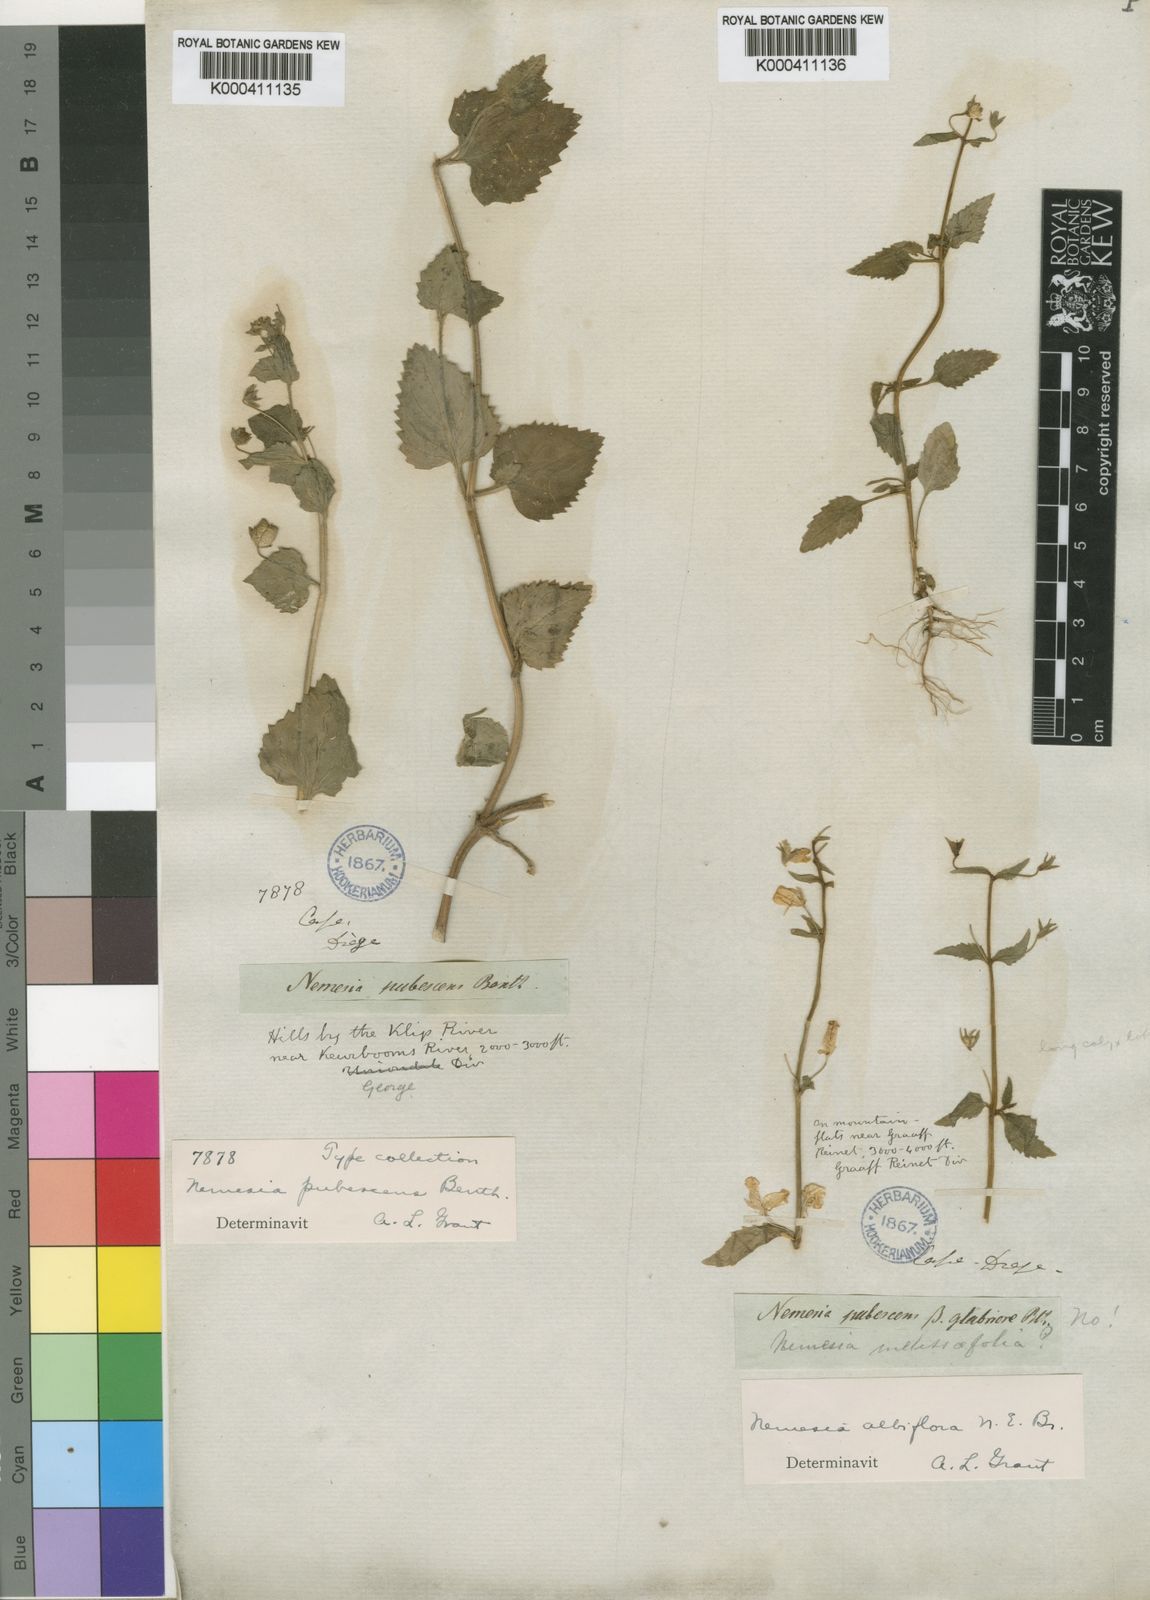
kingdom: Plantae
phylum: Tracheophyta
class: Magnoliopsida
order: Lamiales
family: Scrophulariaceae
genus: Nemesia
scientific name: Nemesia pubescens
